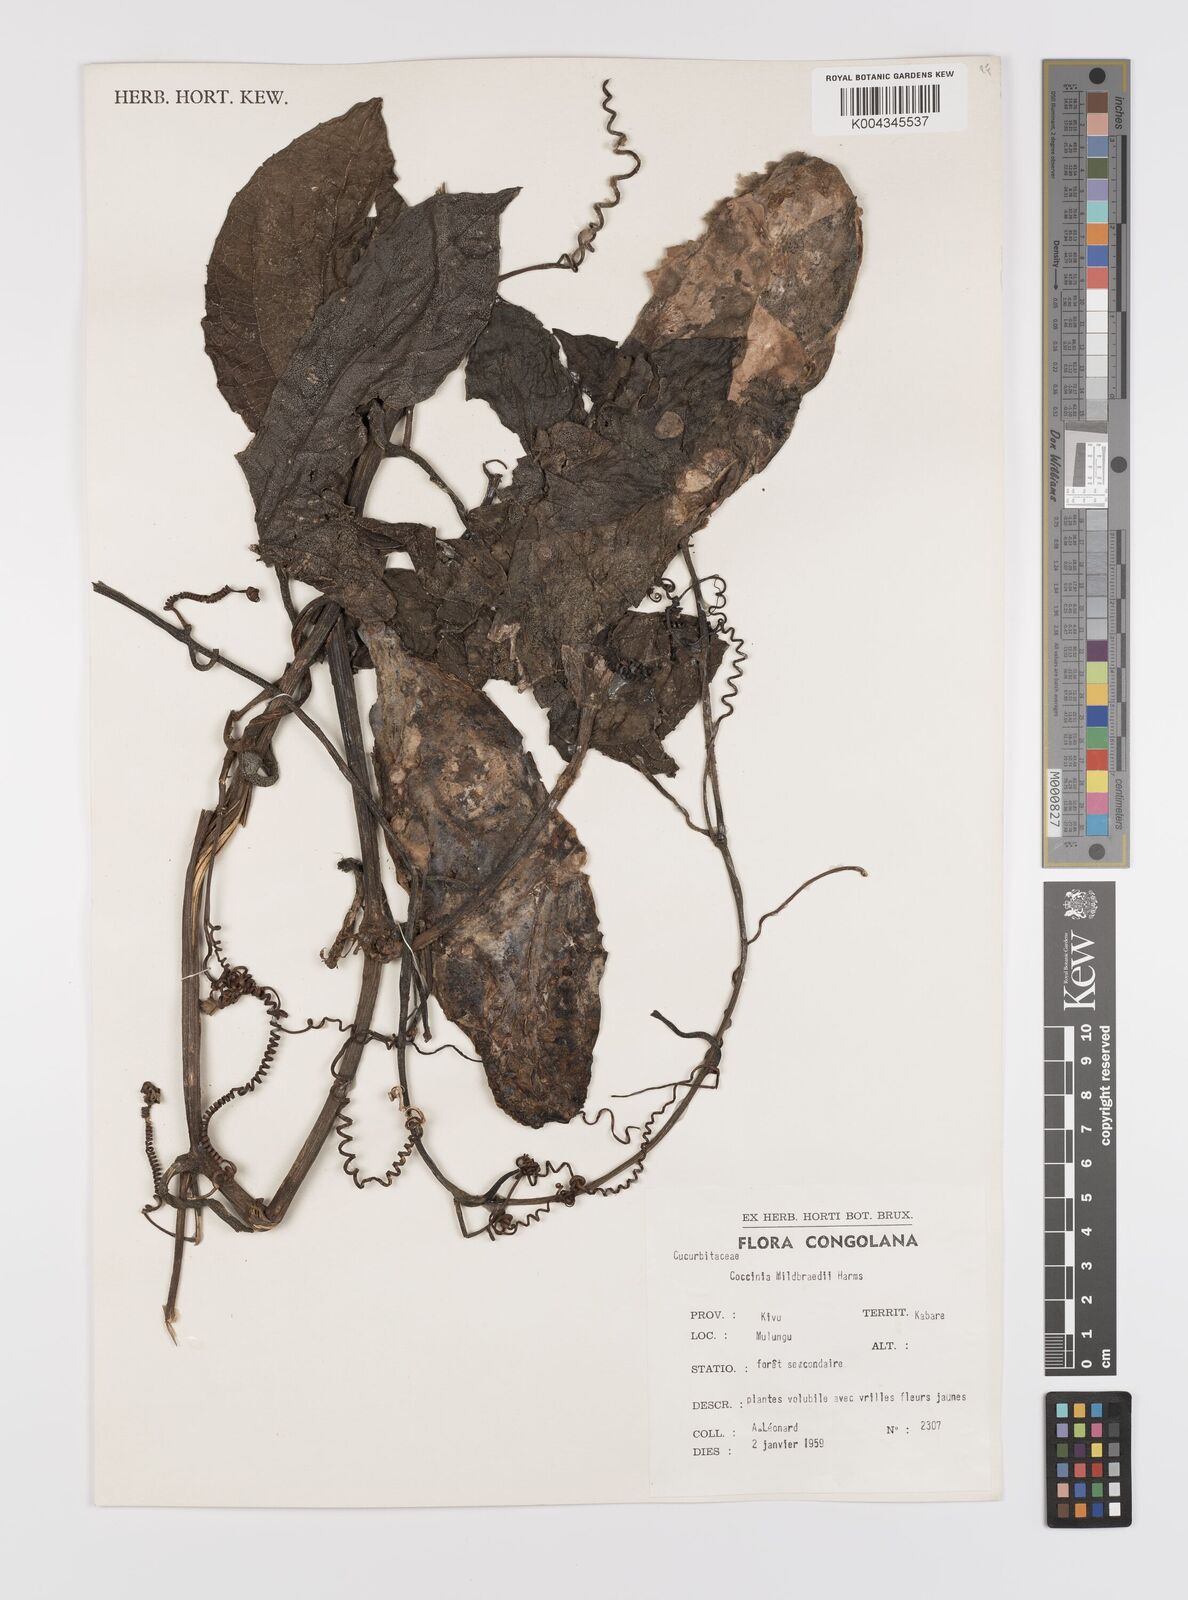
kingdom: Plantae
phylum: Tracheophyta
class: Magnoliopsida
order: Cucurbitales
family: Cucurbitaceae
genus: Coccinia
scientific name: Coccinia mildbraedii
